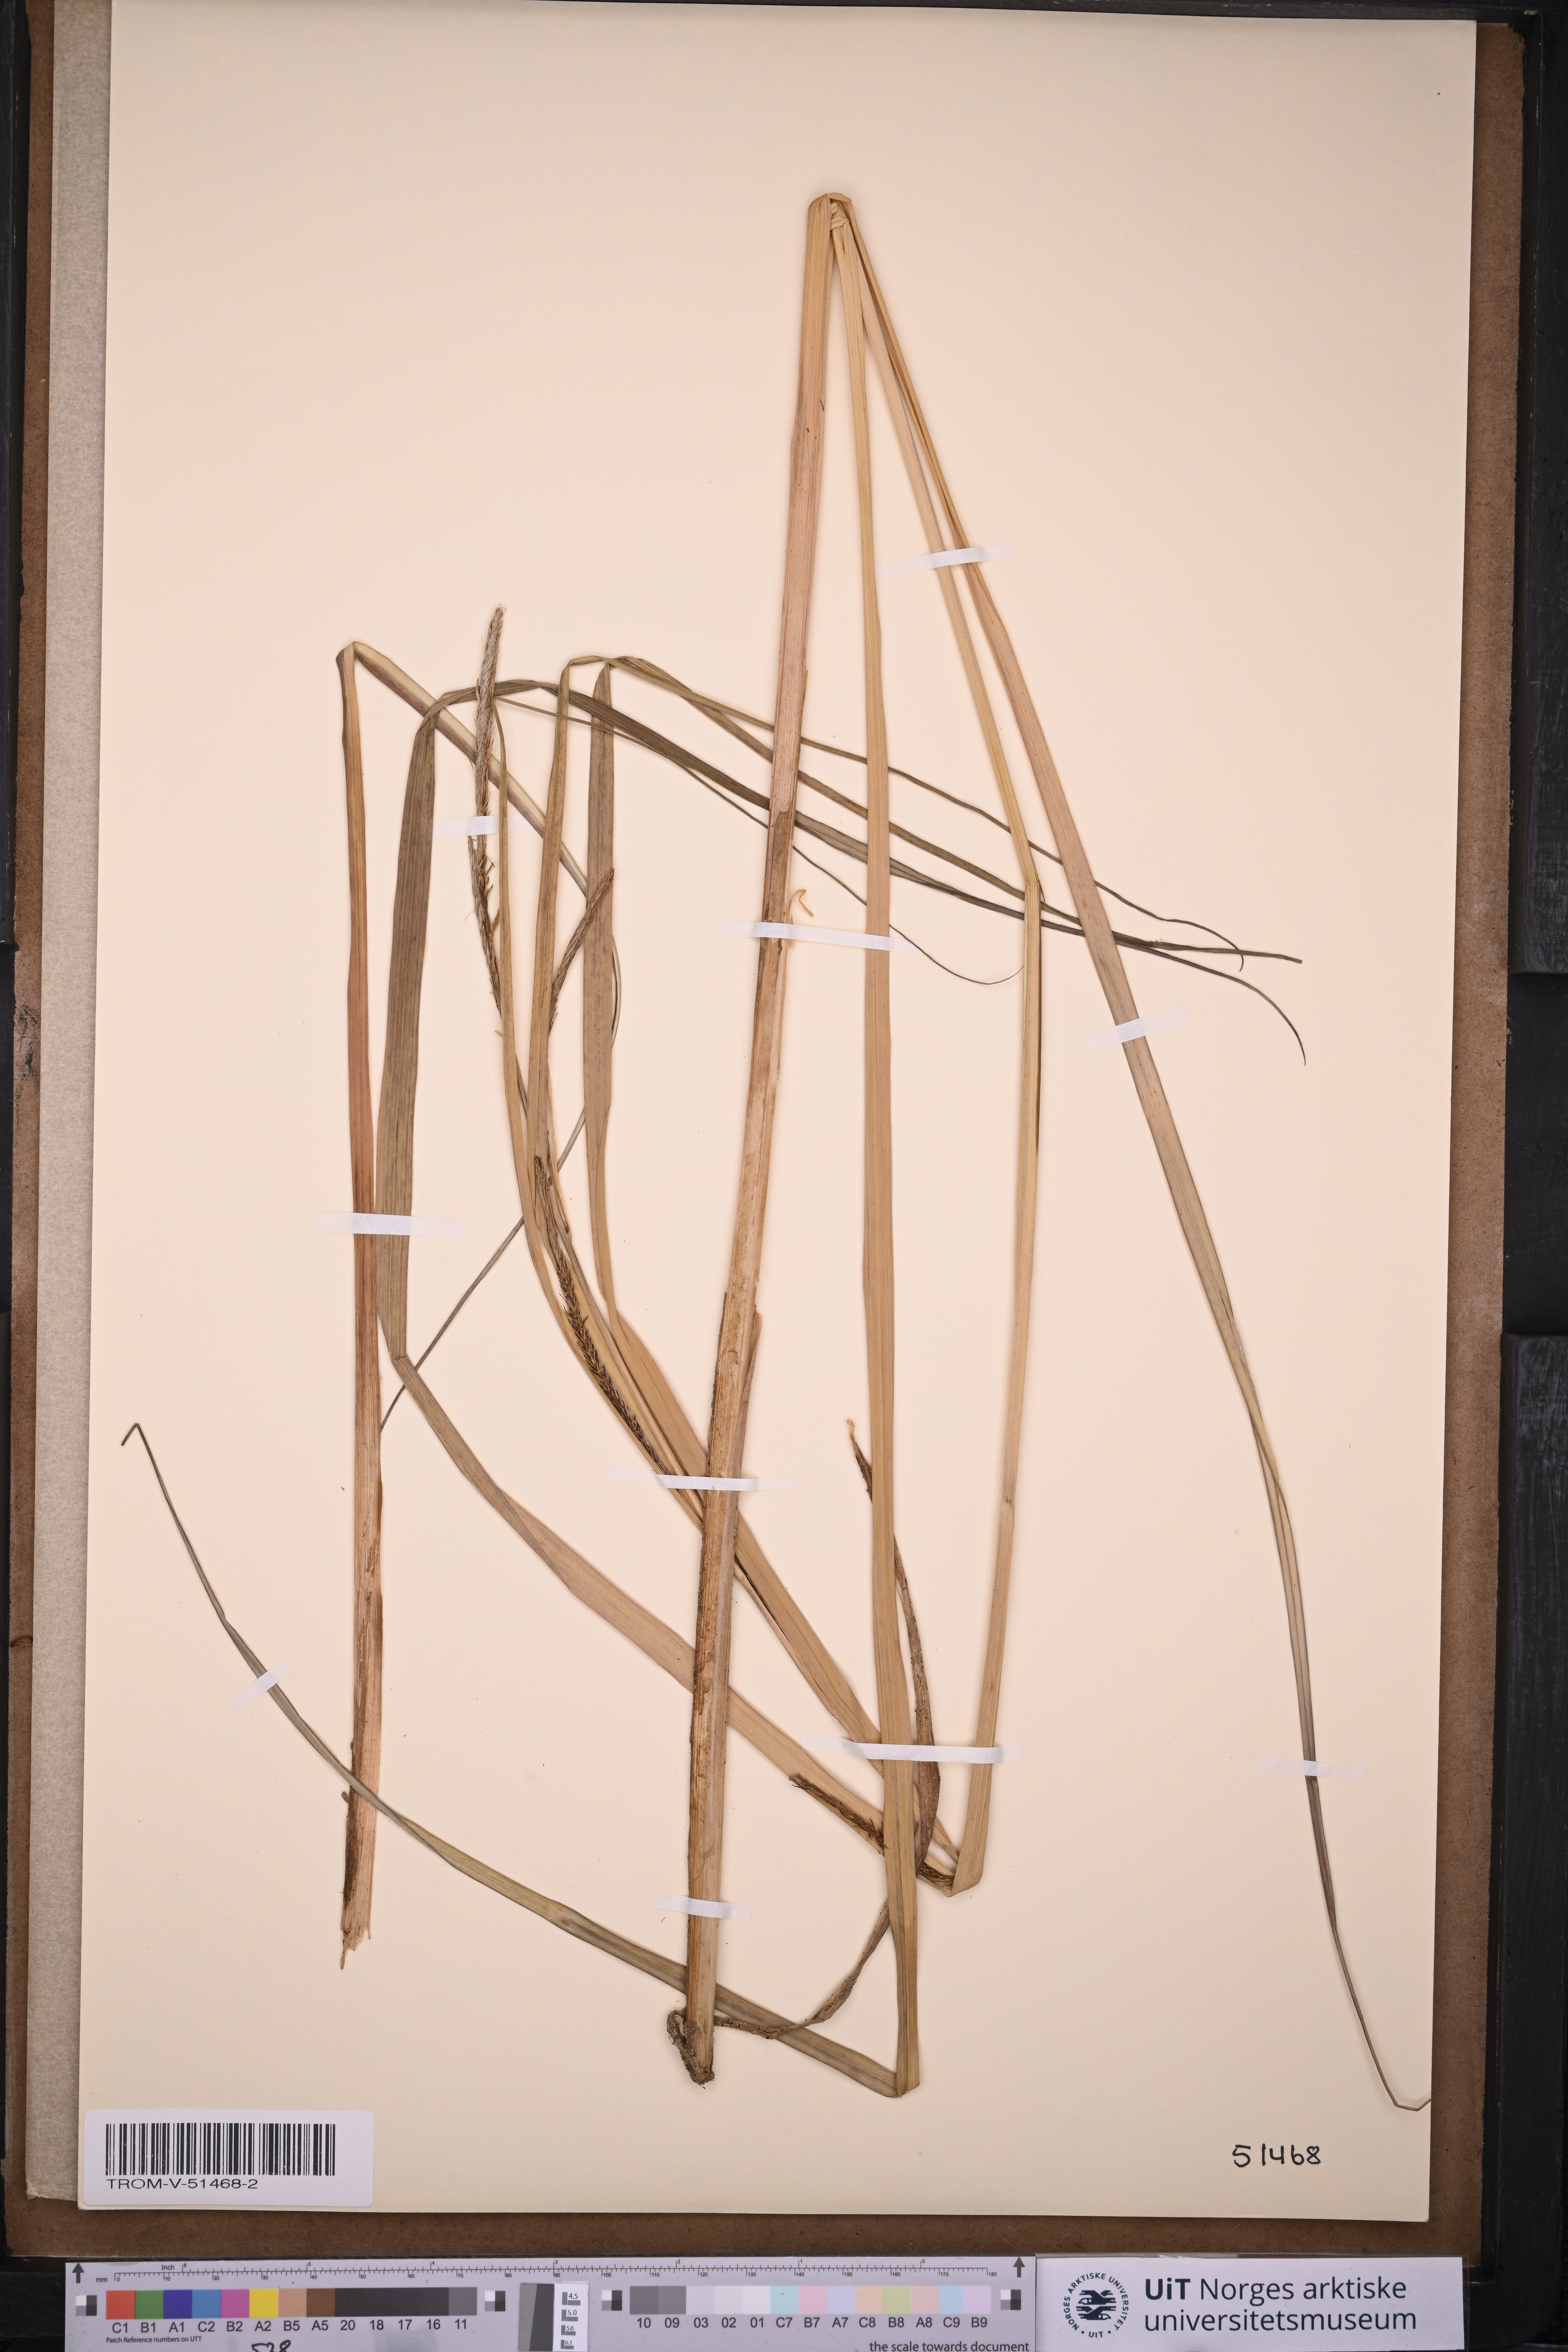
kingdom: Plantae
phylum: Tracheophyta
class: Liliopsida
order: Poales
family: Cyperaceae
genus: Carex
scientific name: Carex aquatilis
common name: Water sedge
